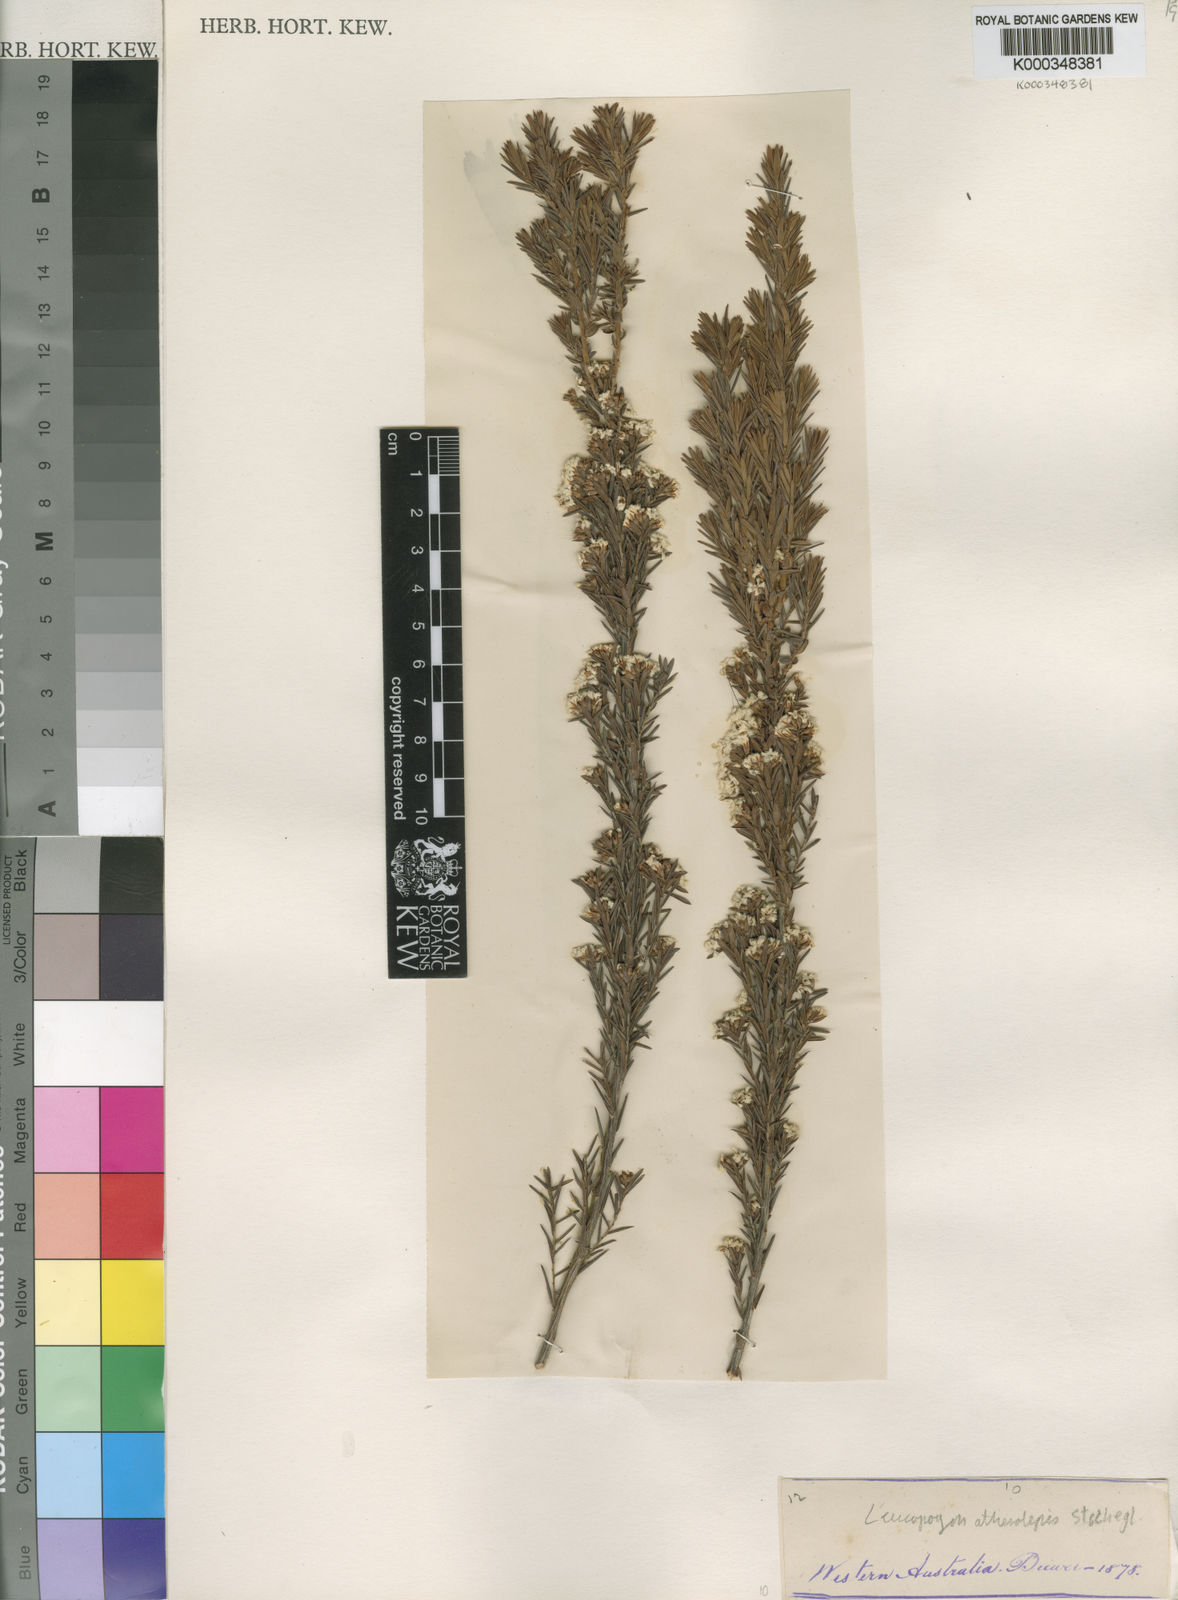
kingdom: Plantae
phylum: Tracheophyta
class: Magnoliopsida
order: Ericales
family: Ericaceae
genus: Leucopogon
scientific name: Leucopogon atherolepis
